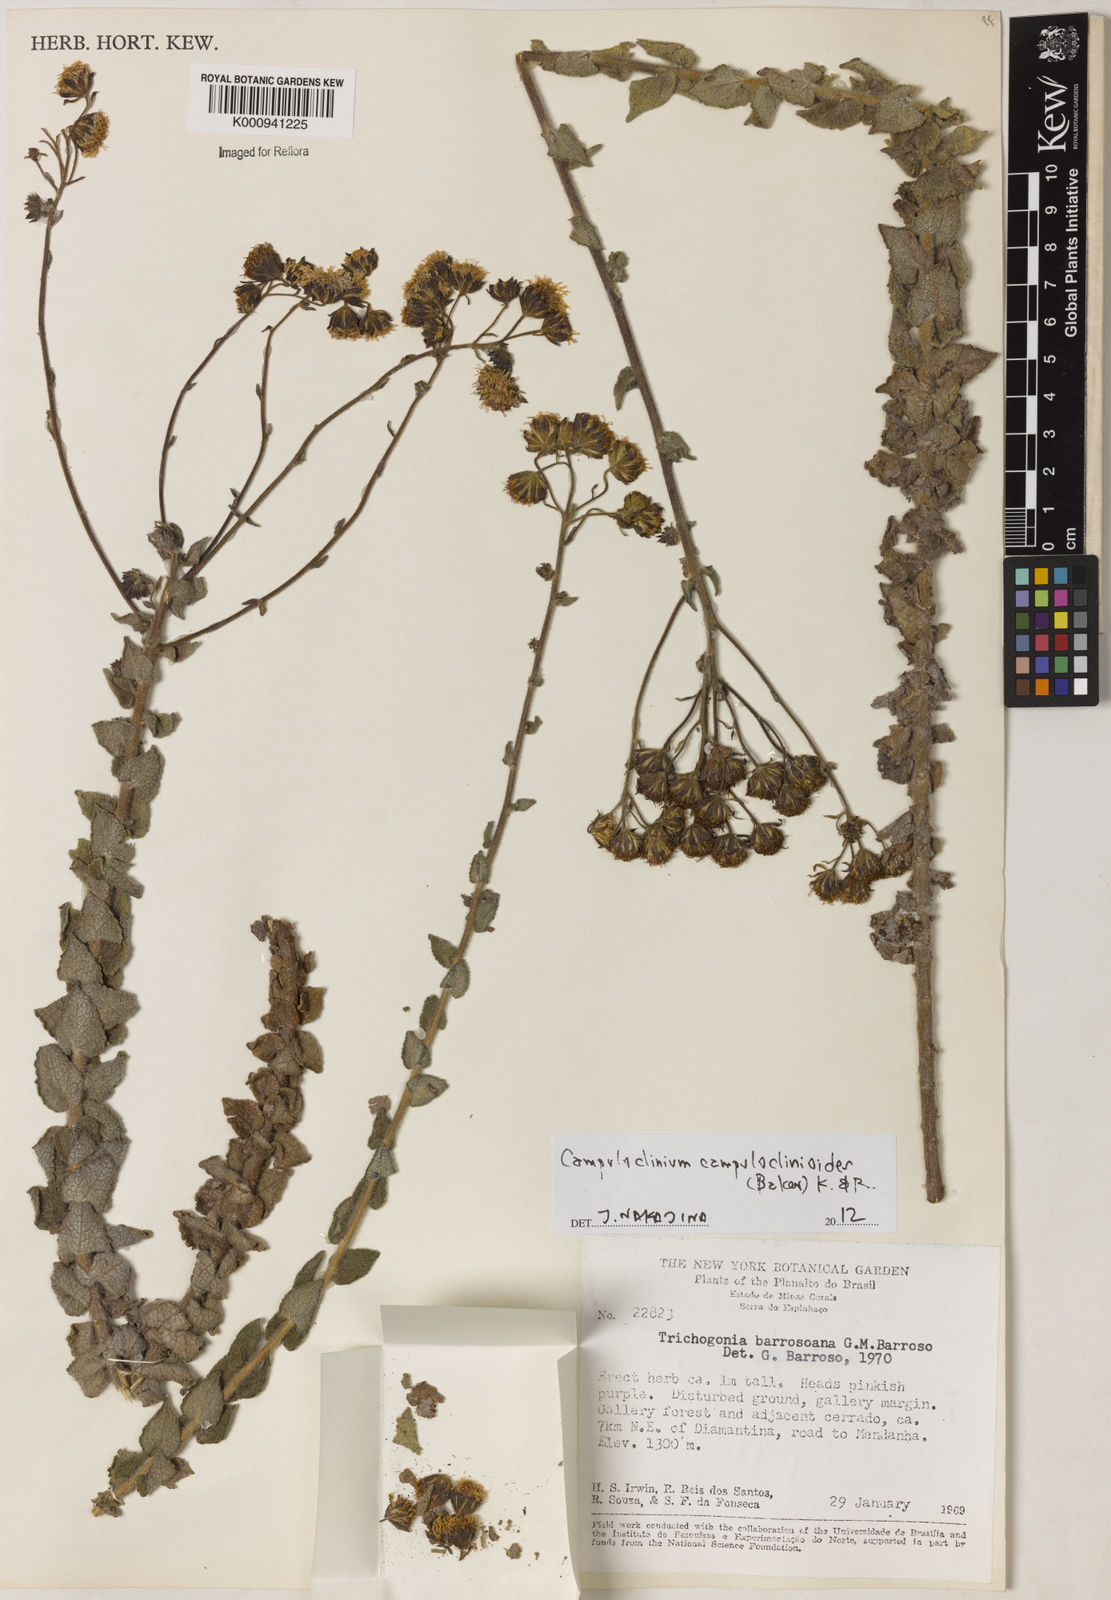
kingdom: Plantae
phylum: Tracheophyta
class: Magnoliopsida
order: Asterales
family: Asteraceae
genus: Campuloclinium
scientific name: Campuloclinium campuloclinioides
